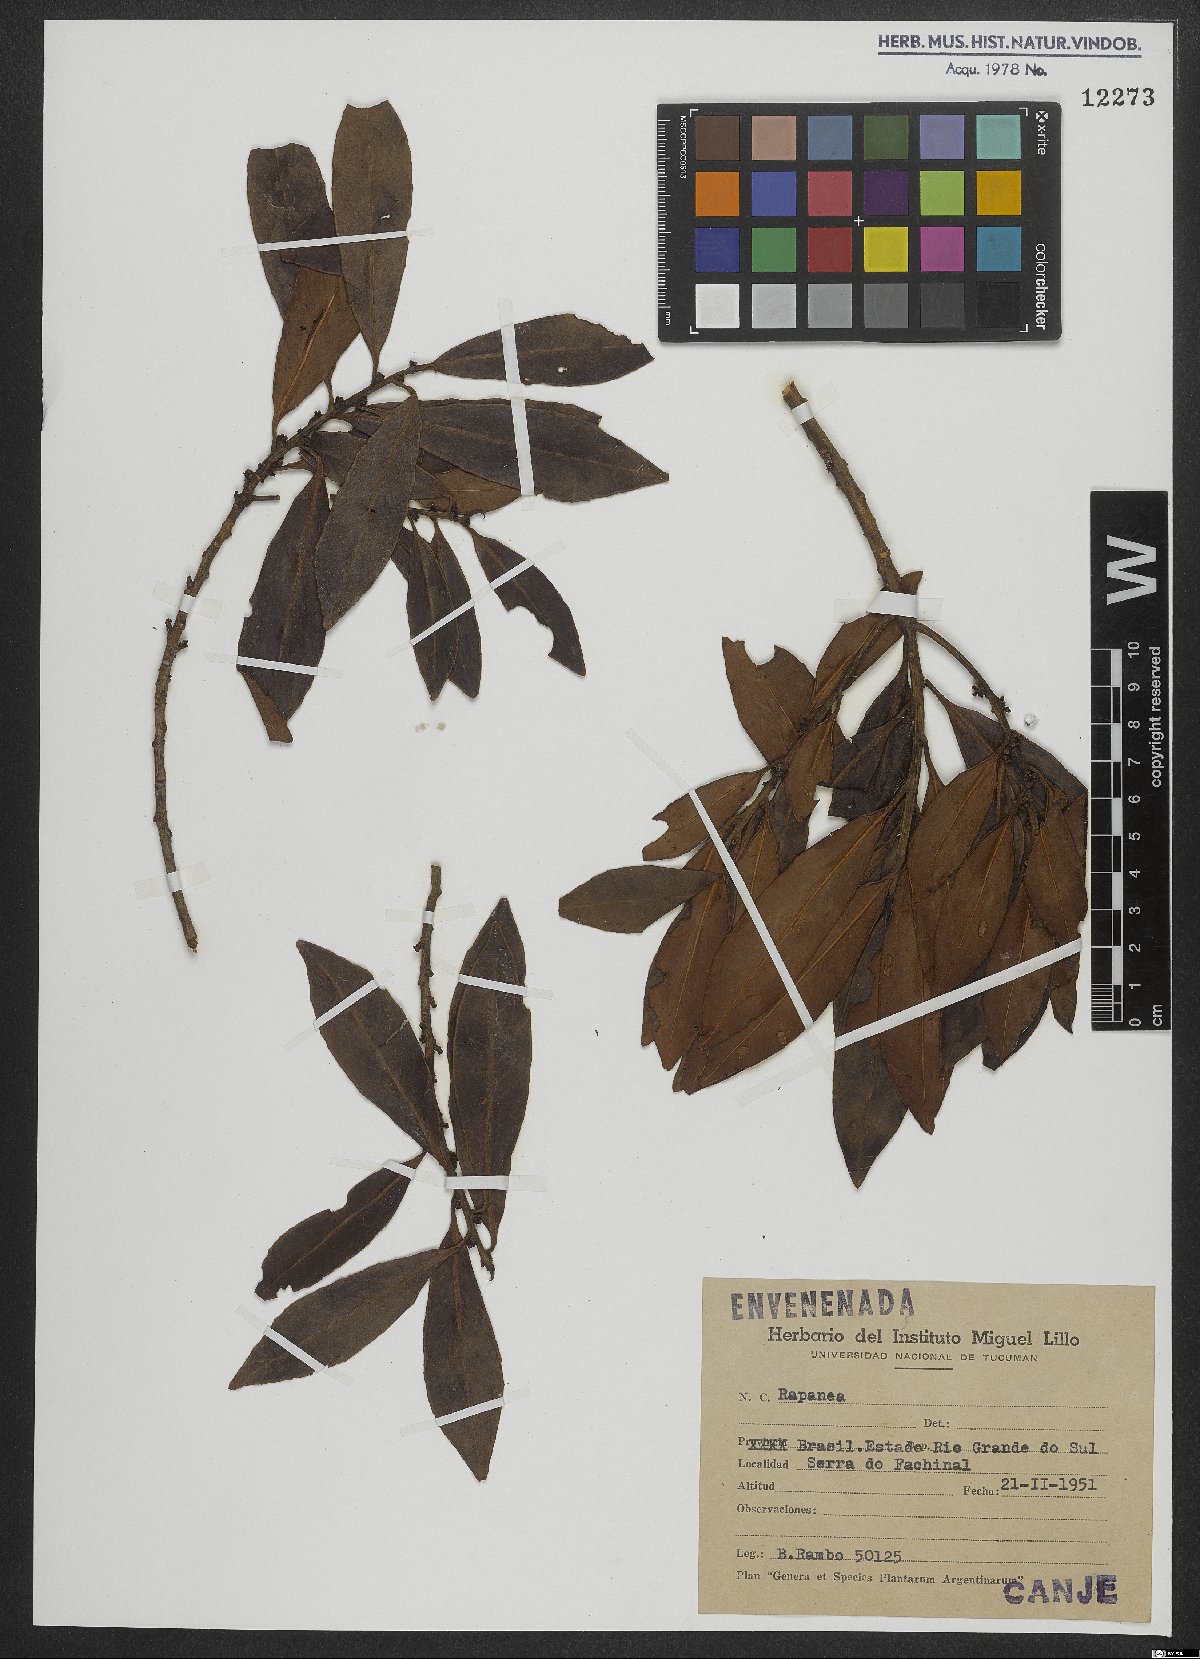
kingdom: Plantae
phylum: Tracheophyta
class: Magnoliopsida
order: Ericales
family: Primulaceae
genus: Myrsine
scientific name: Myrsine
